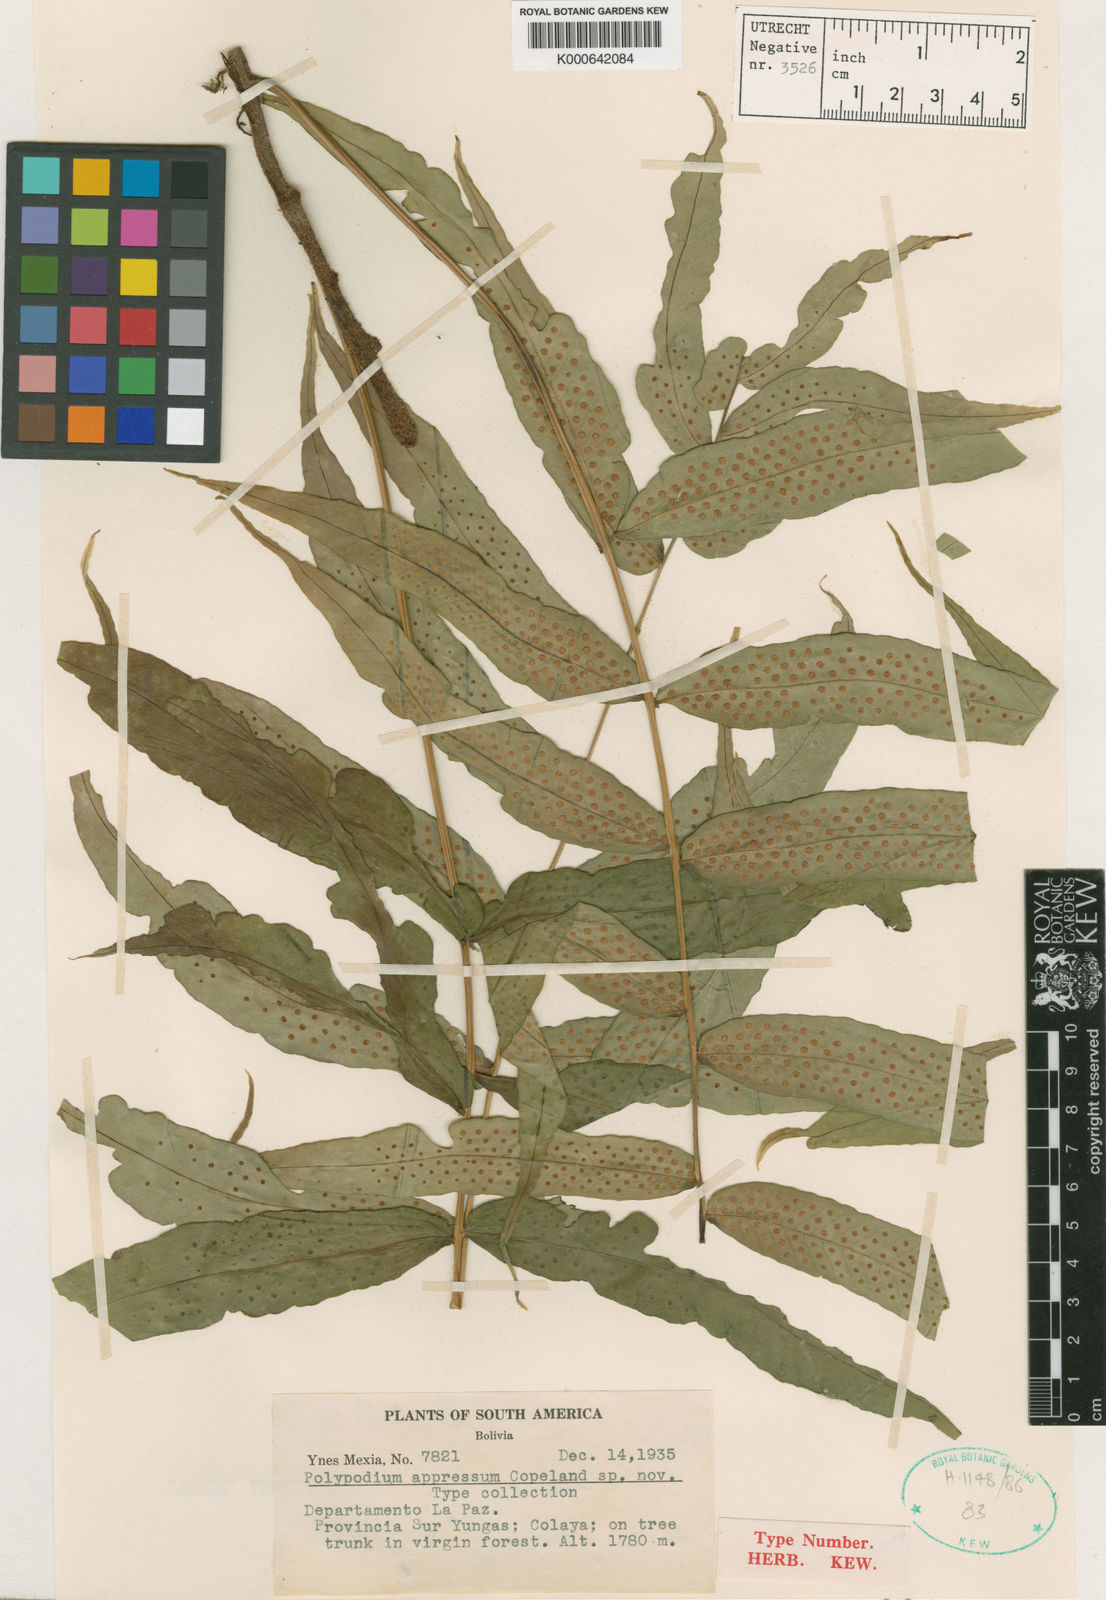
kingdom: Plantae
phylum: Tracheophyta
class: Polypodiopsida
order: Polypodiales
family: Polypodiaceae
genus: Serpocaulon
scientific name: Serpocaulon appressum
